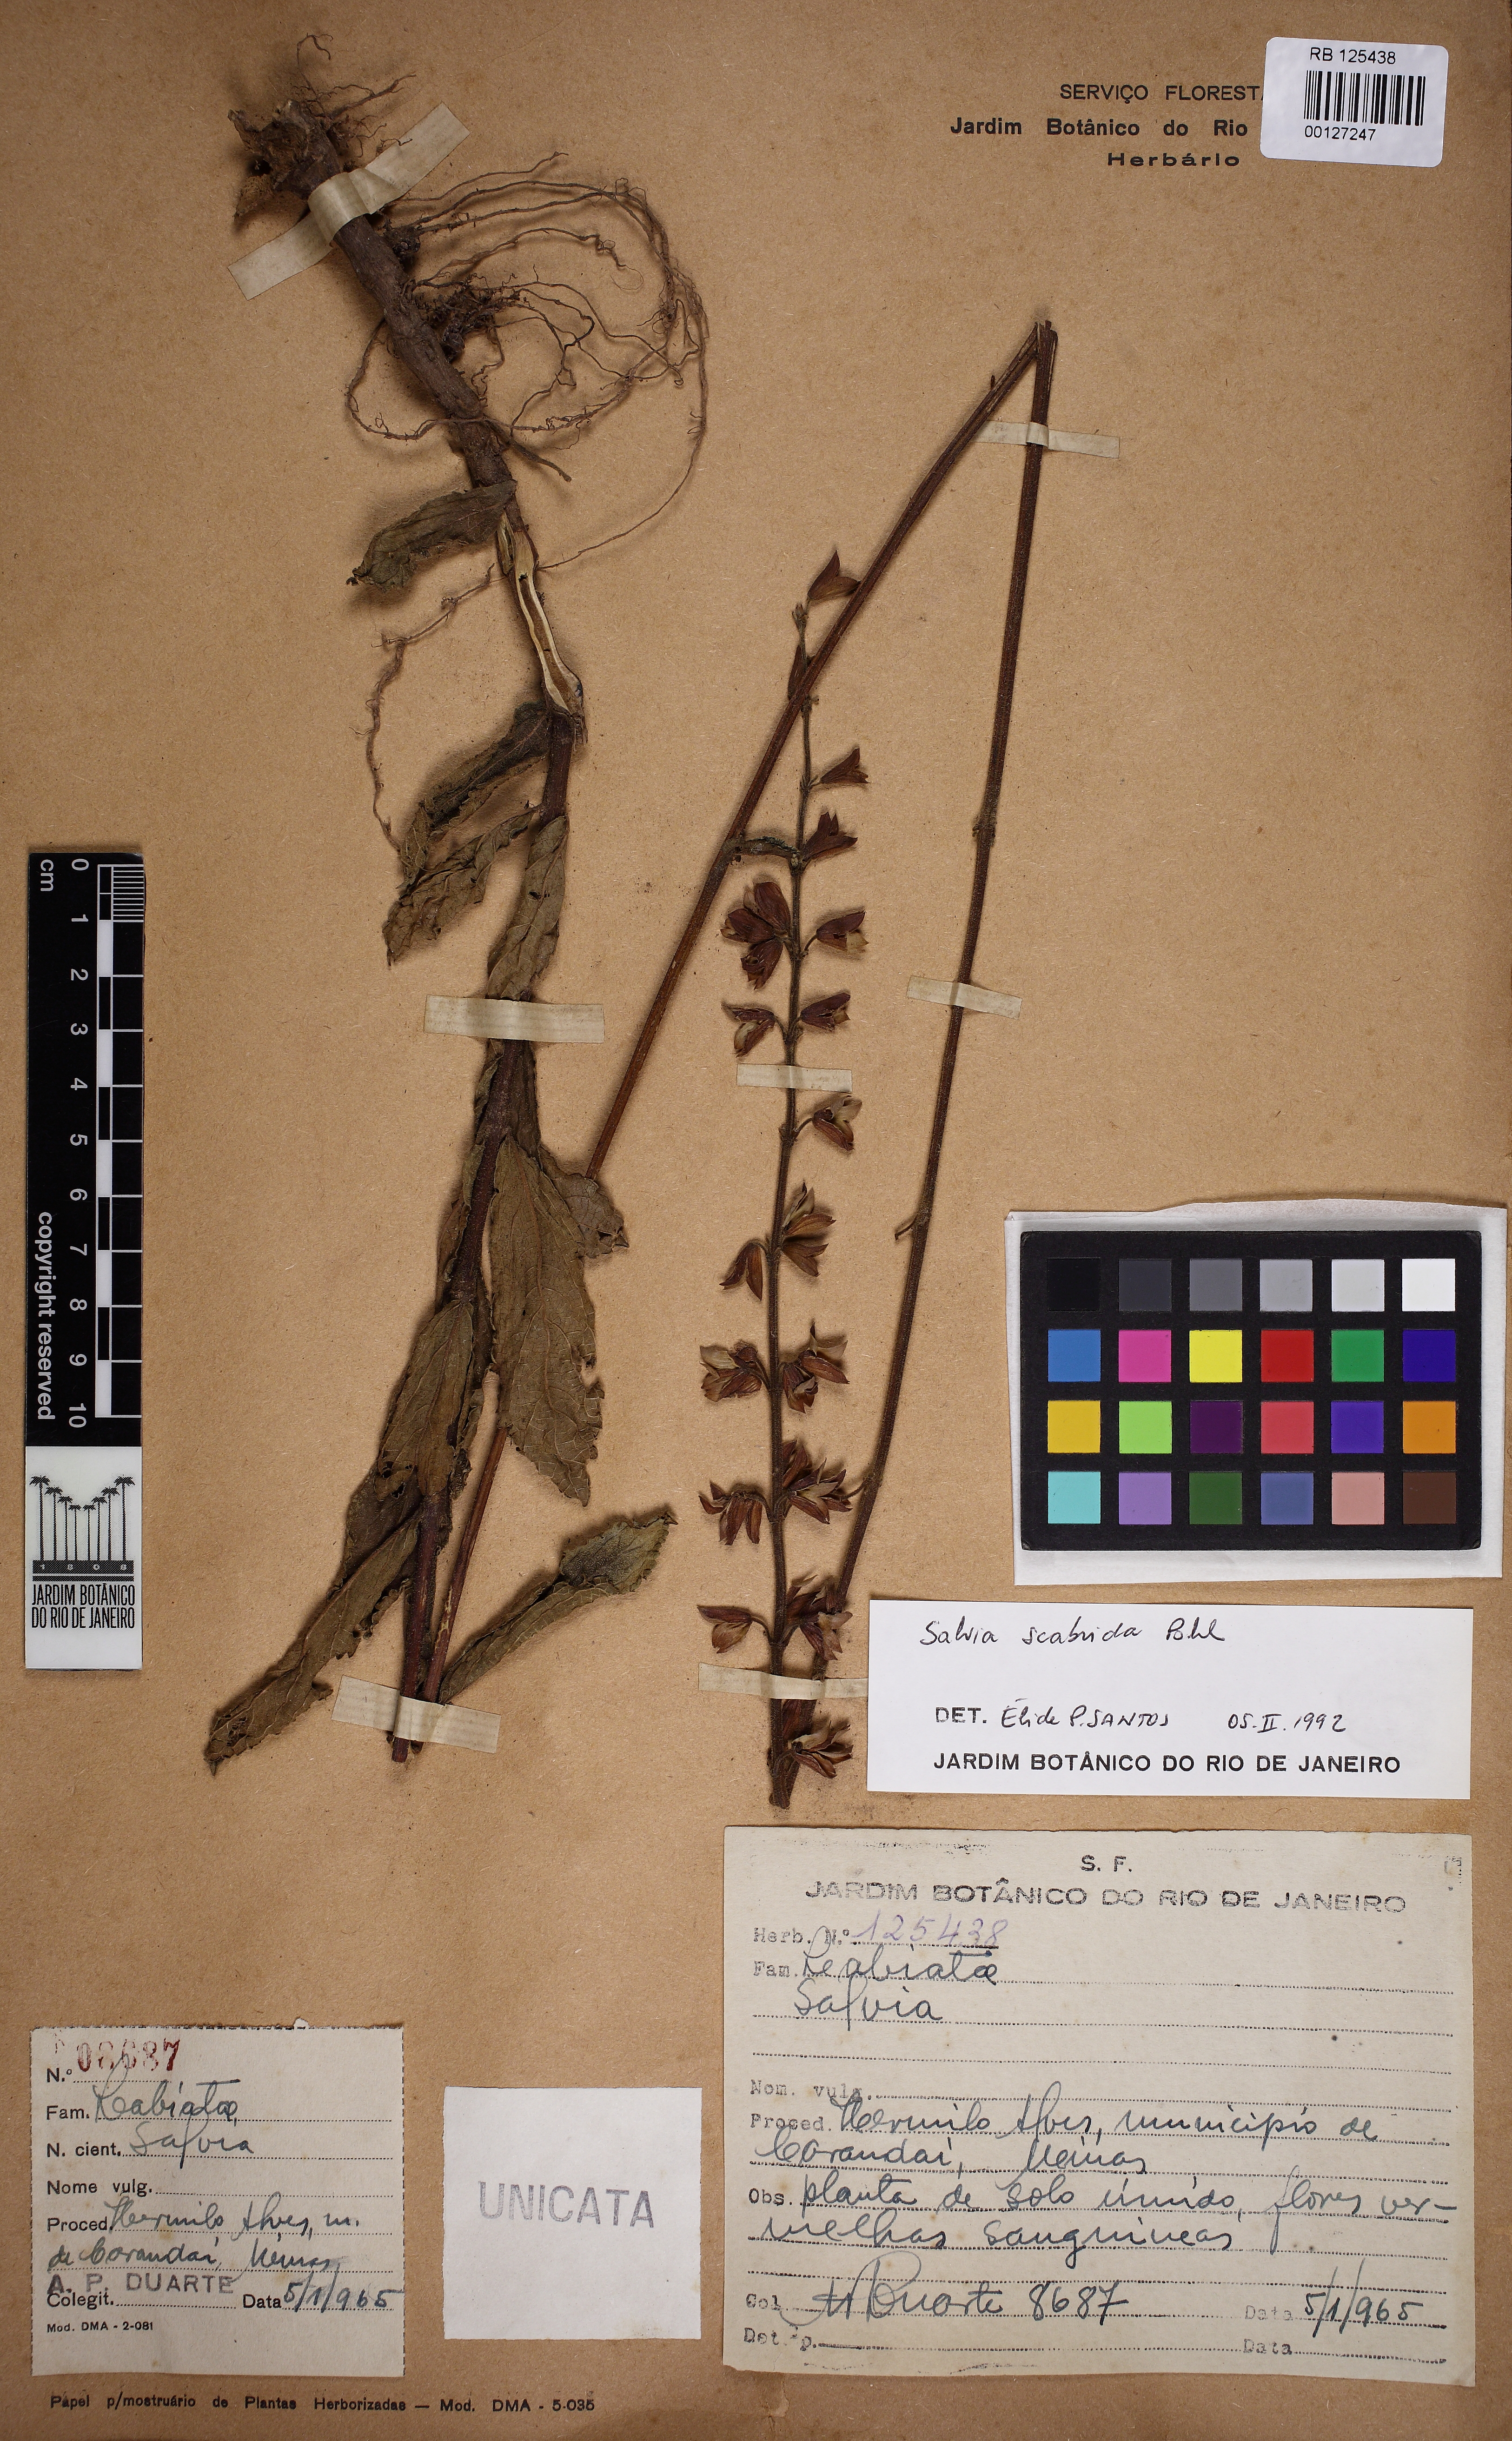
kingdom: Plantae
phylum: Tracheophyta
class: Magnoliopsida
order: Lamiales
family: Lamiaceae
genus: Salvia
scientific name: Salvia scabrida
